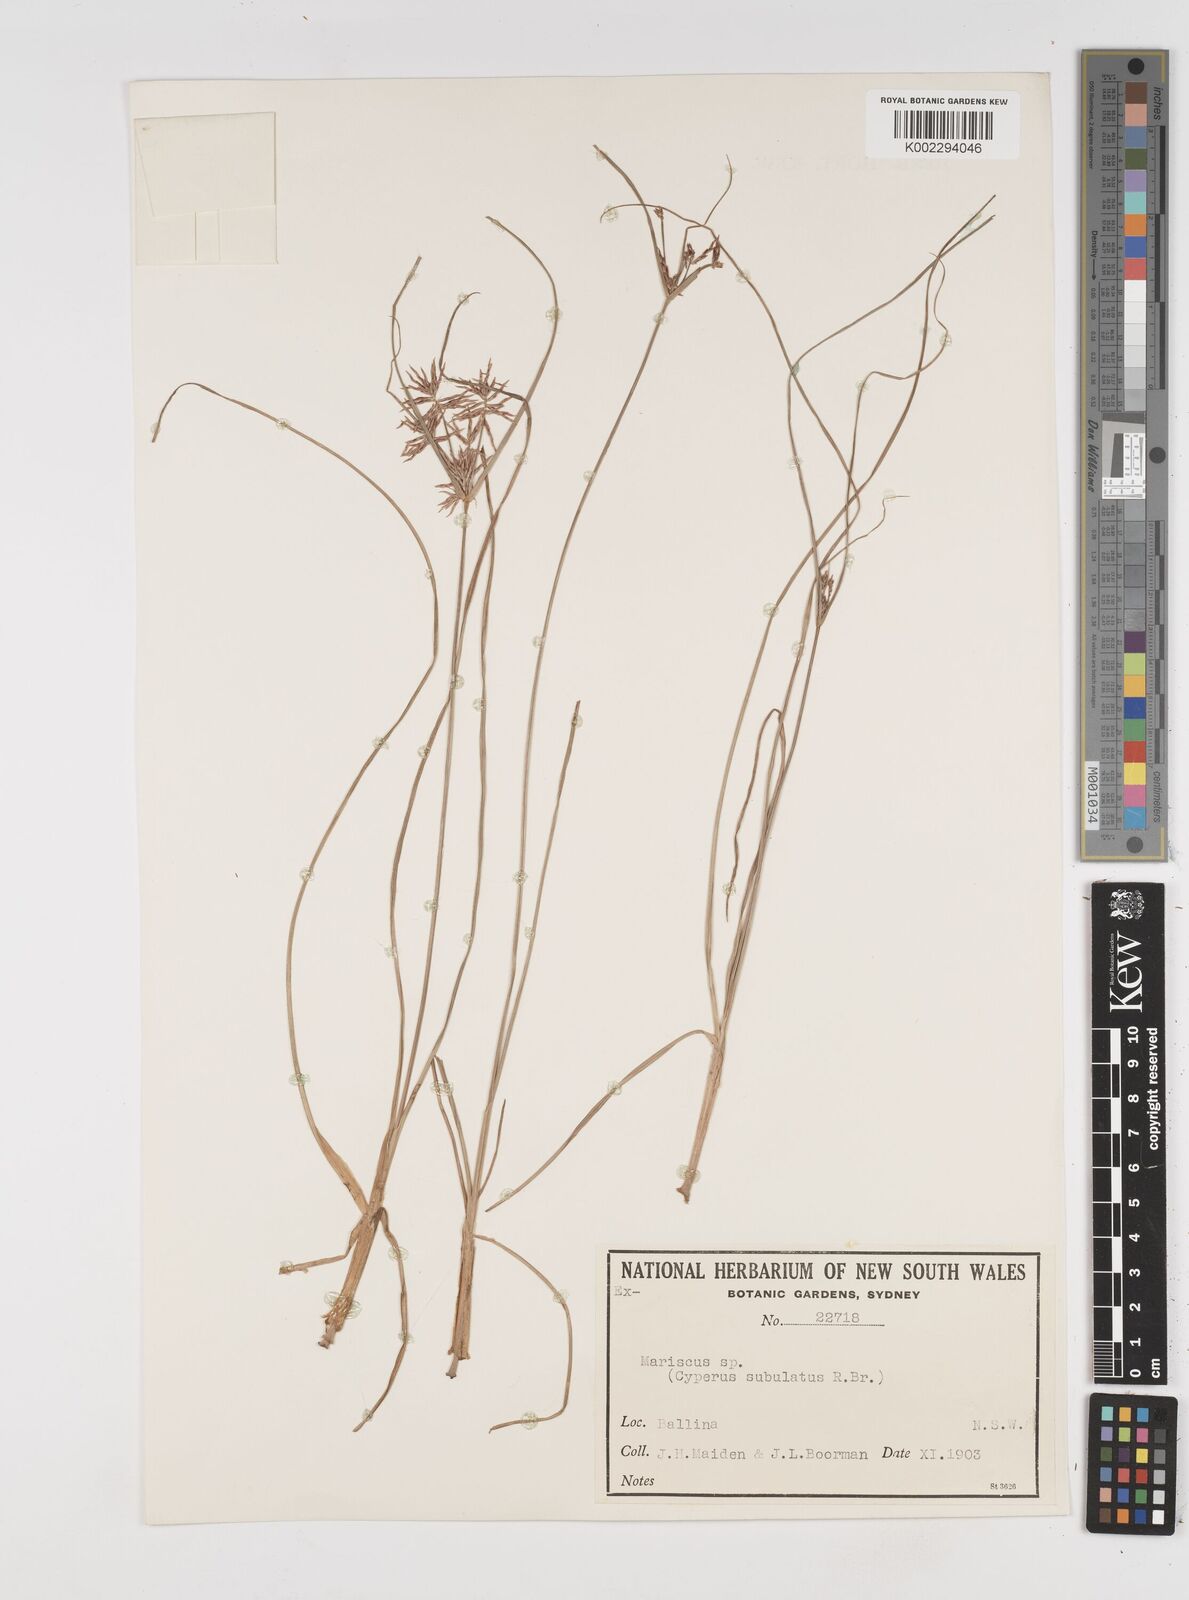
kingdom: Plantae
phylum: Tracheophyta
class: Liliopsida
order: Poales
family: Cyperaceae
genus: Cyperus
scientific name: Cyperus subulatus
